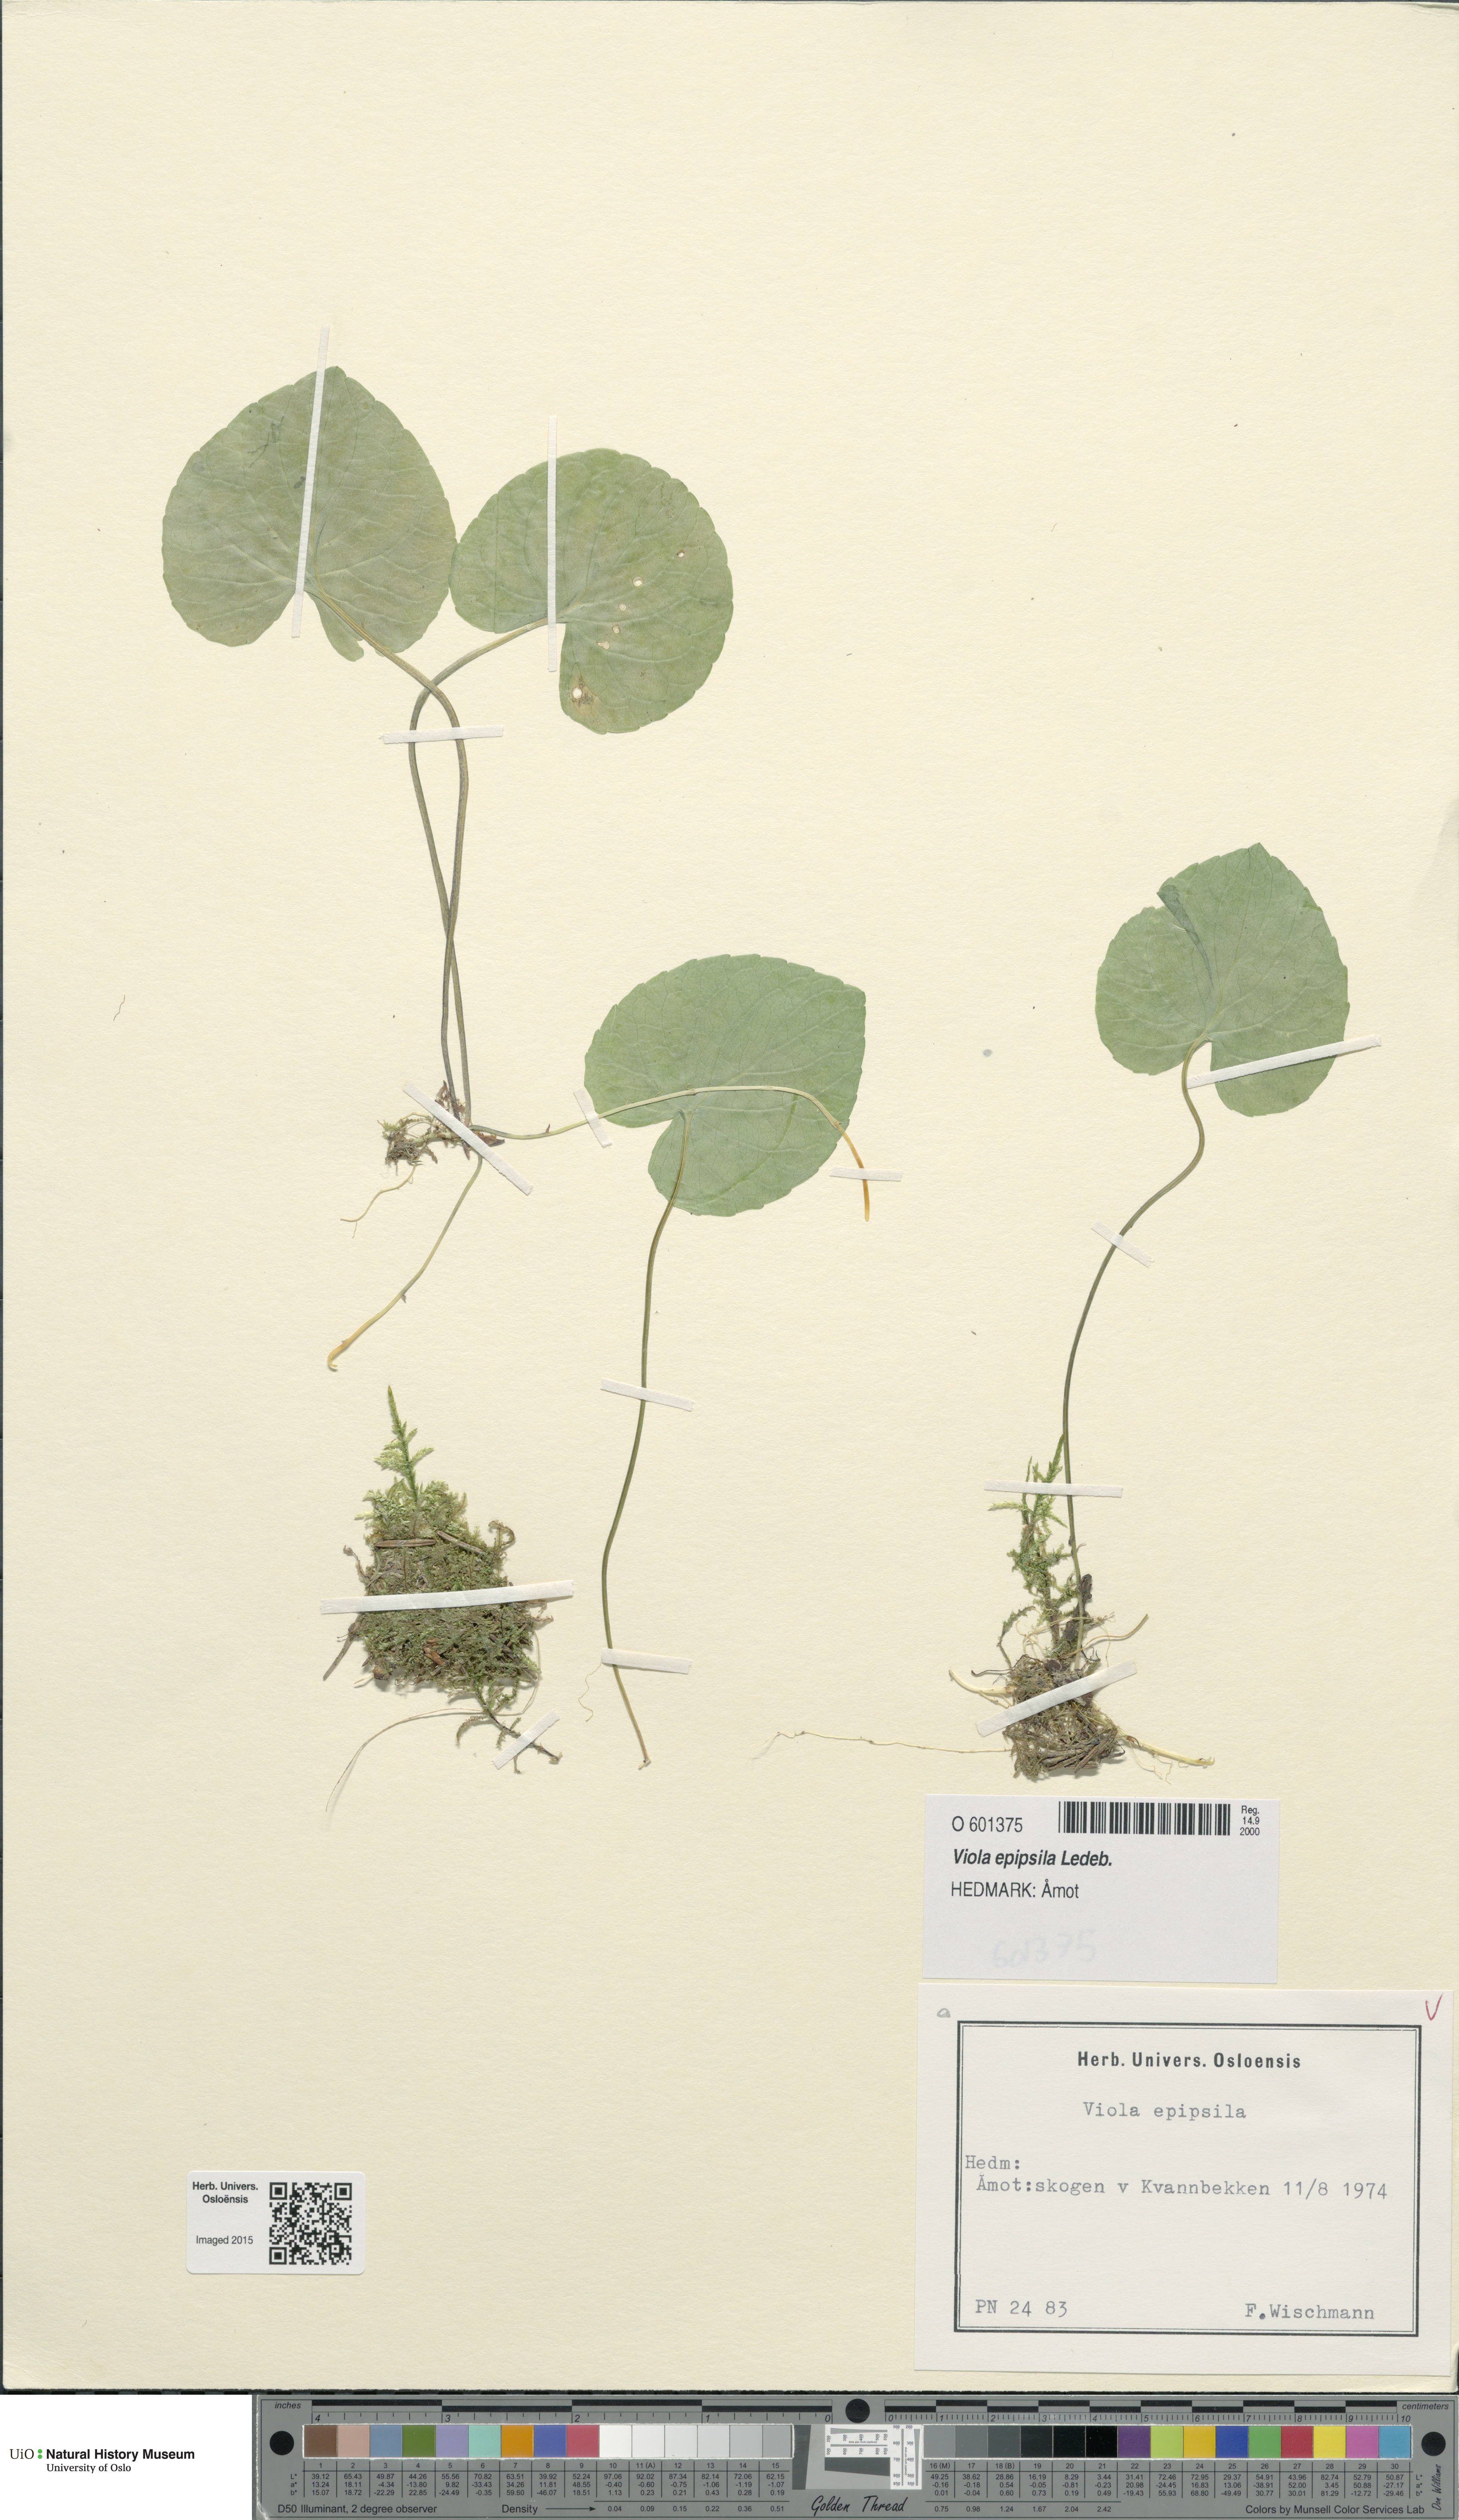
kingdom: Plantae
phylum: Tracheophyta
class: Magnoliopsida
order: Malpighiales
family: Violaceae
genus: Viola
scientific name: Viola epipsila
